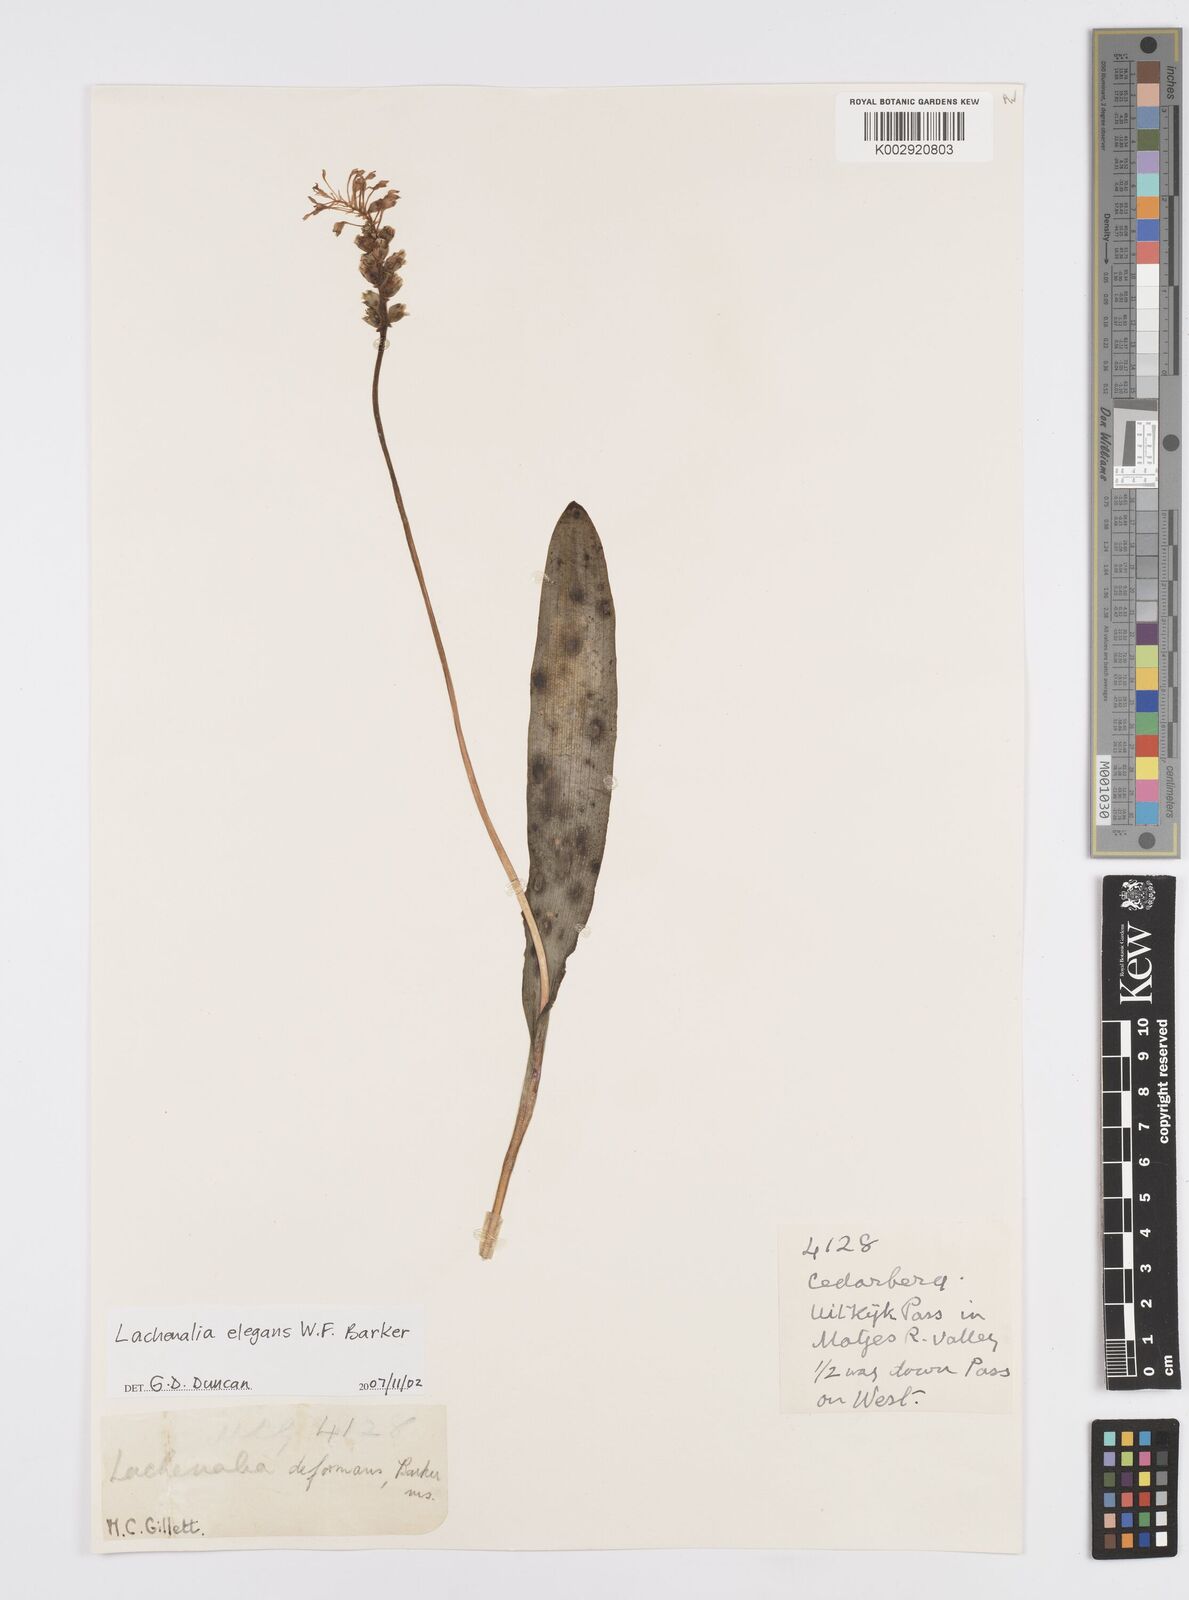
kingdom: Plantae
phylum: Tracheophyta
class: Liliopsida
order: Asparagales
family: Asparagaceae
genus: Lachenalia
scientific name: Lachenalia
